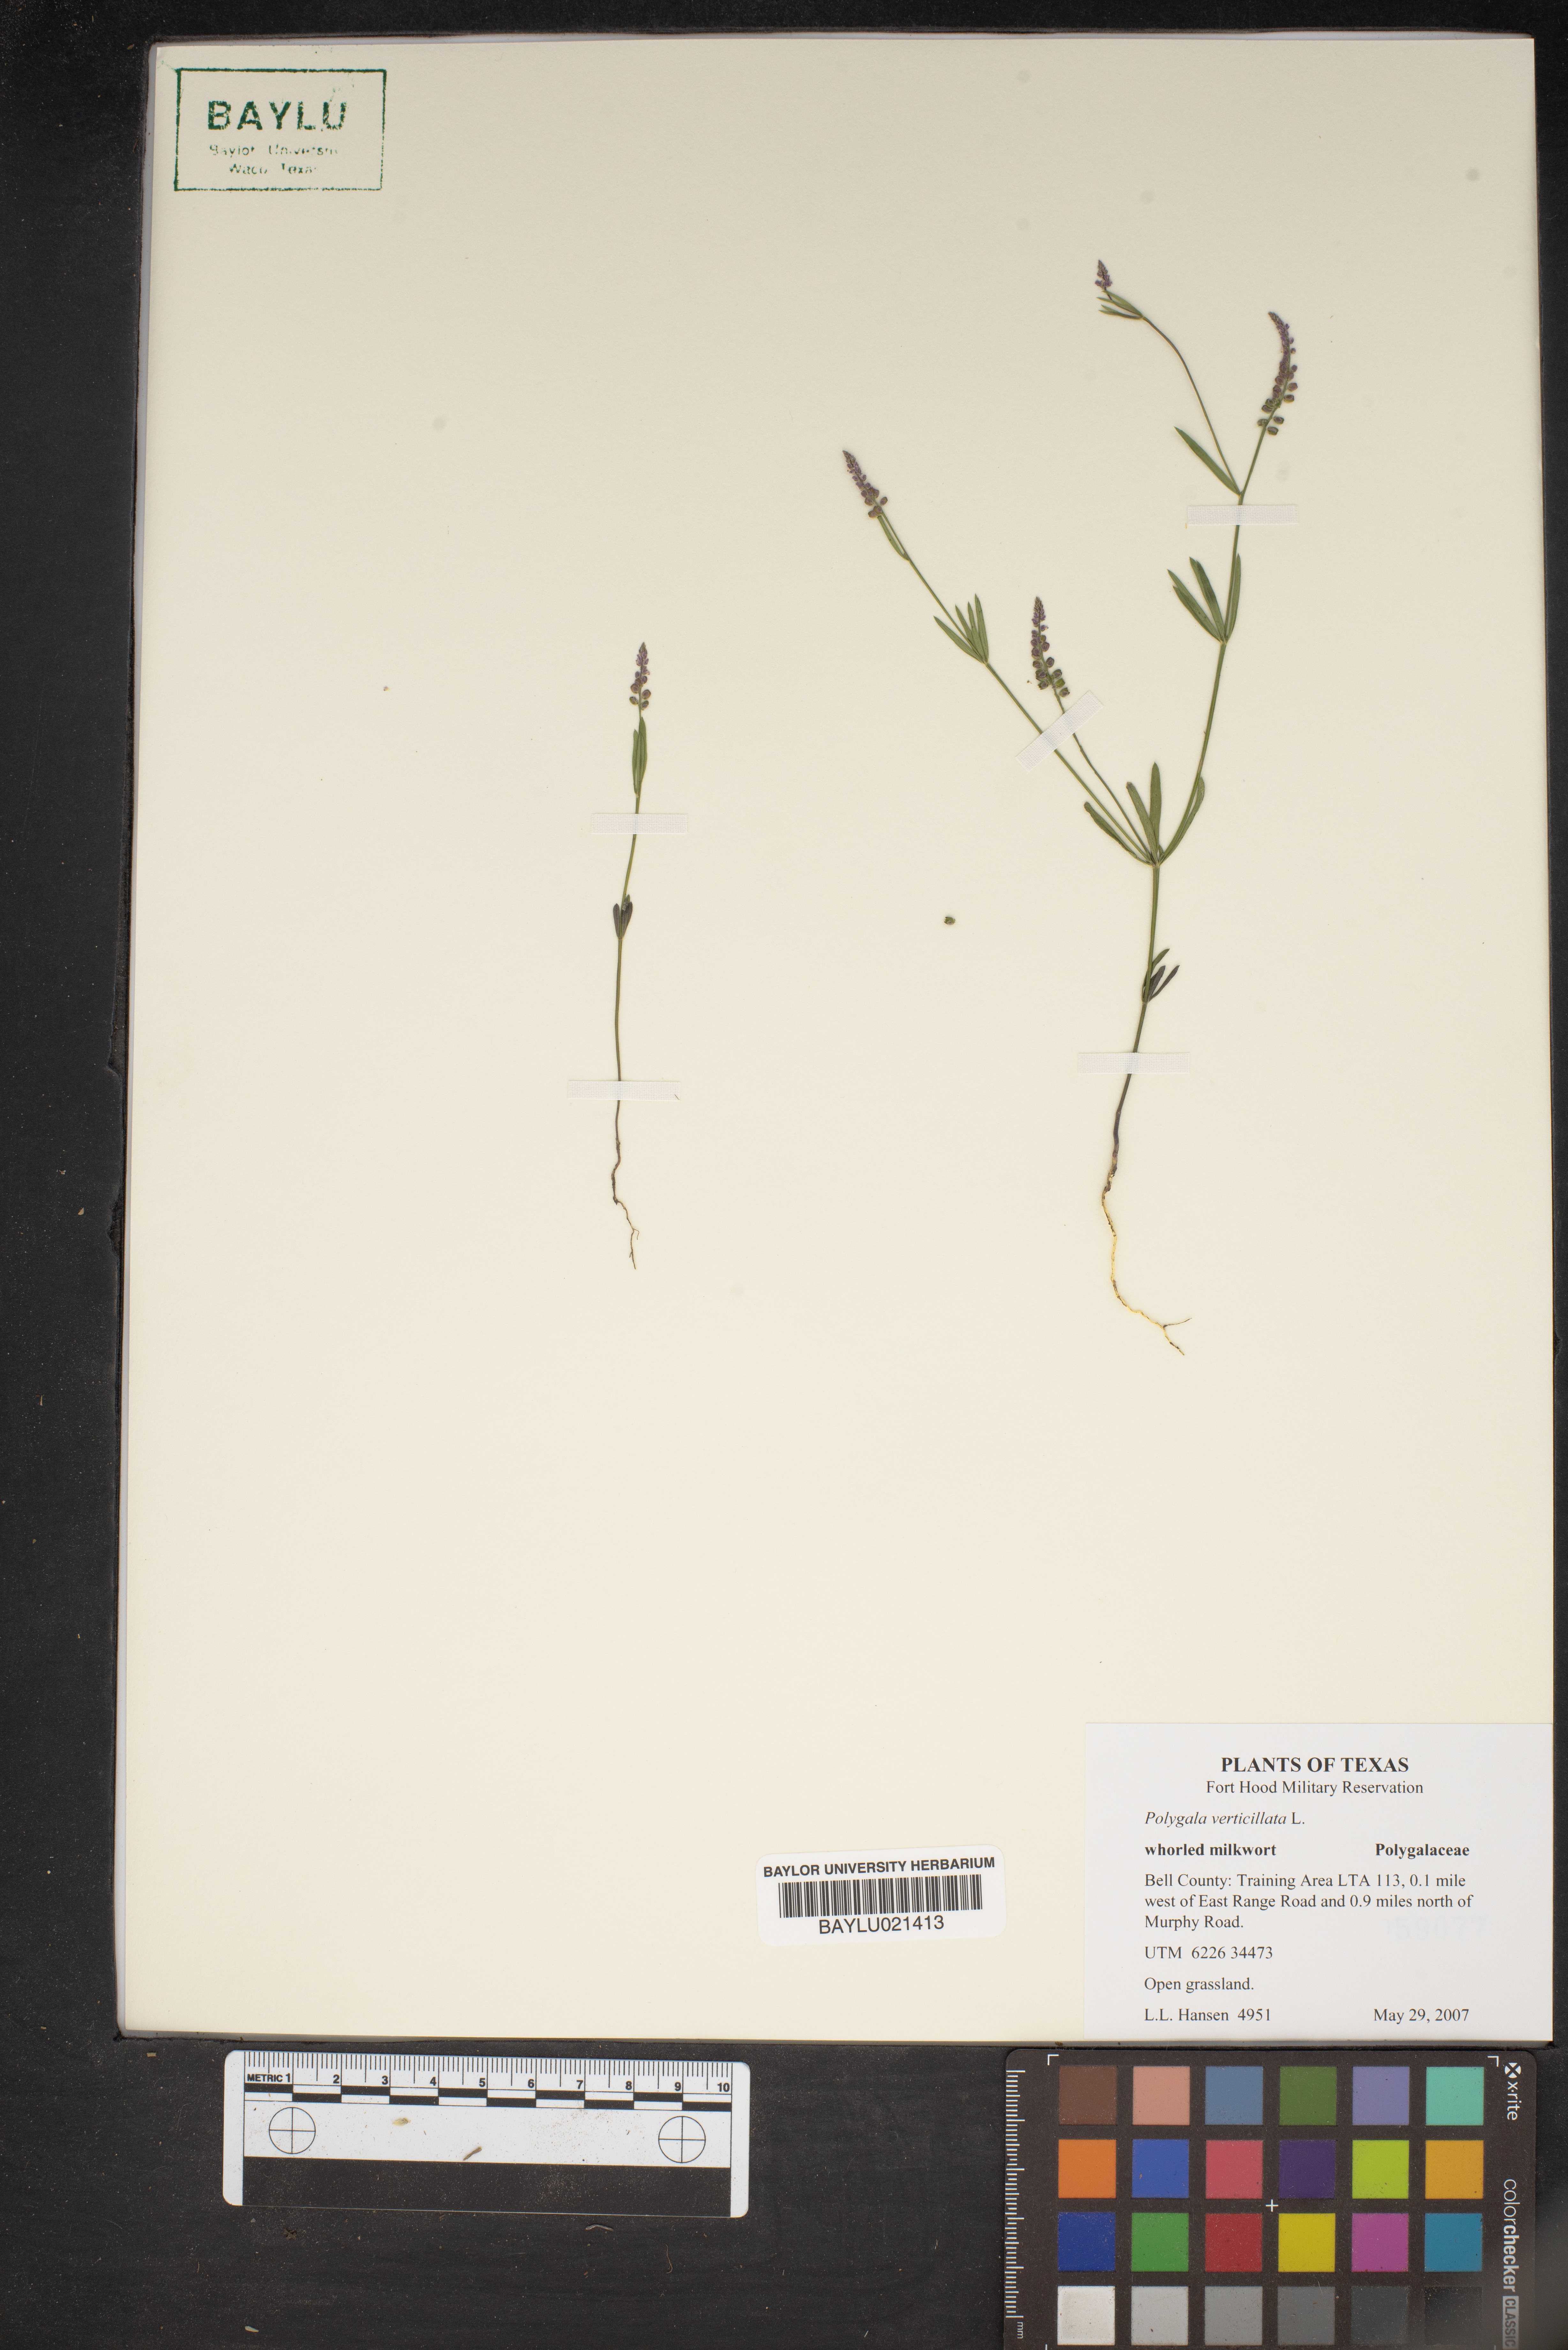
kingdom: Plantae
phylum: Tracheophyta
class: Magnoliopsida
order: Fabales
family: Polygalaceae
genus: Polygala
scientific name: Polygala verticillata
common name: Whorl milkwort
